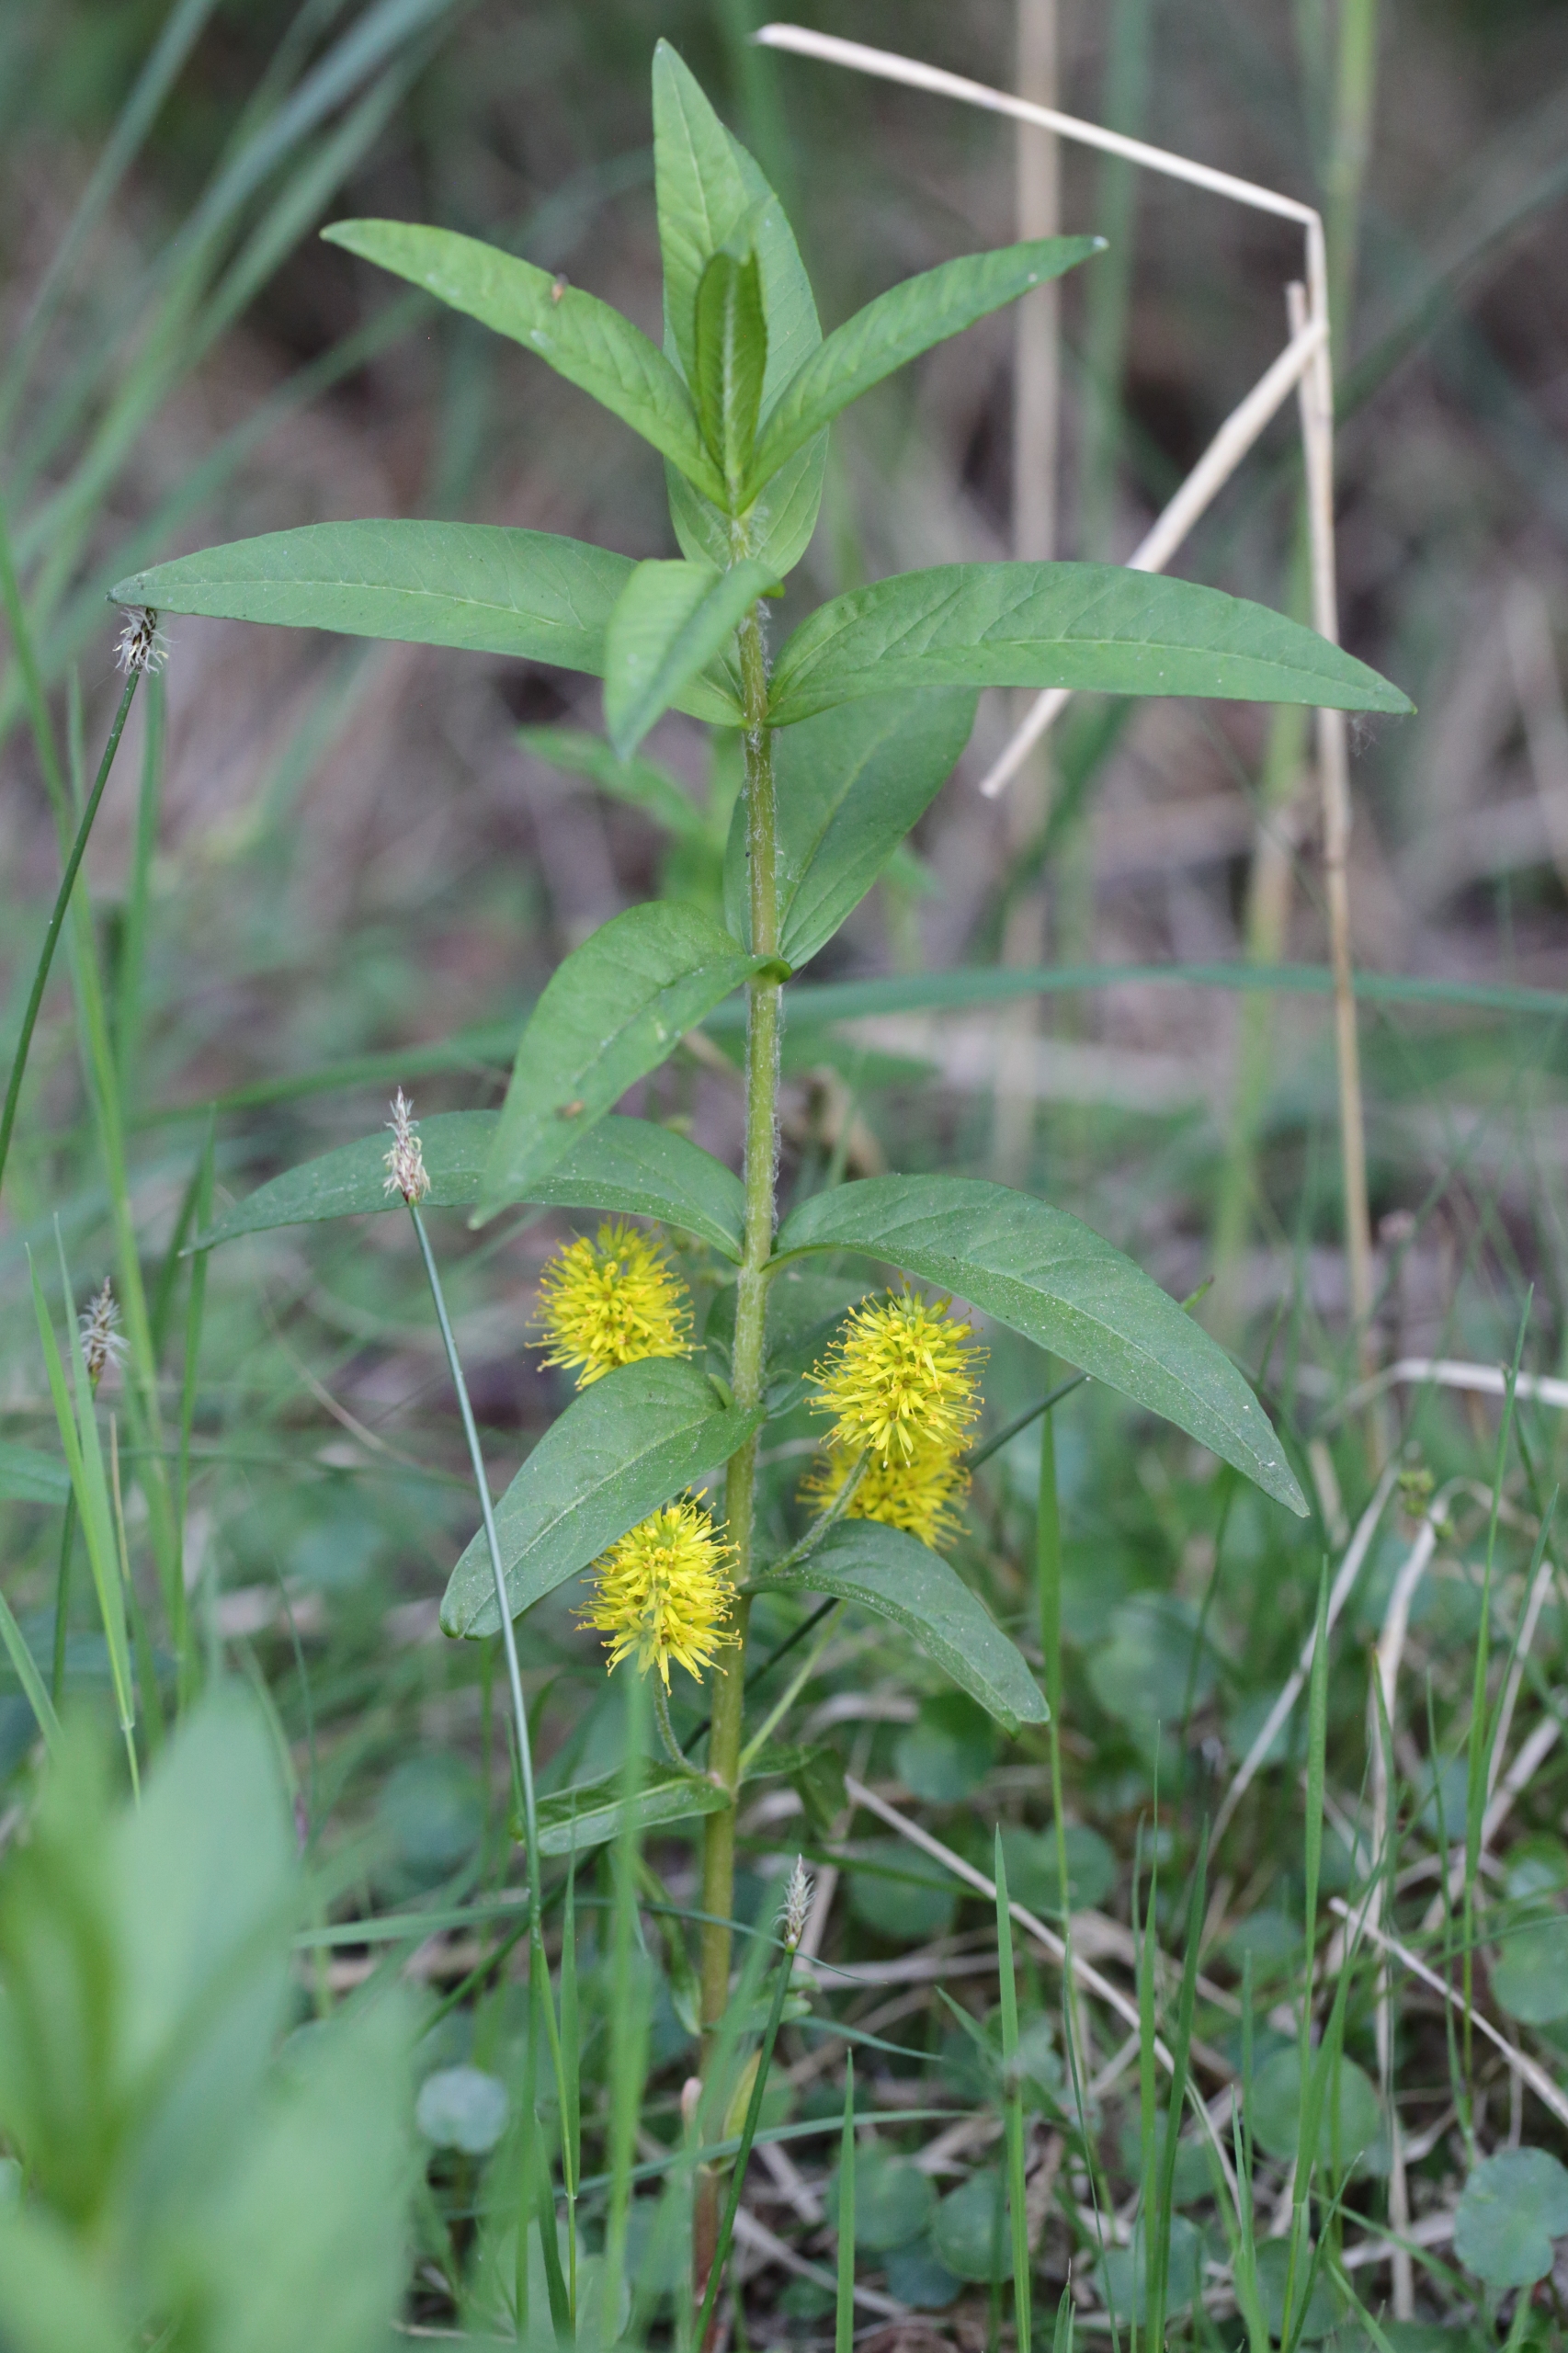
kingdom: Plantae
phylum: Tracheophyta
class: Magnoliopsida
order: Ericales
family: Primulaceae
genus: Lysimachia
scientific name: Lysimachia thyrsiflora
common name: Dusk-fredløs
